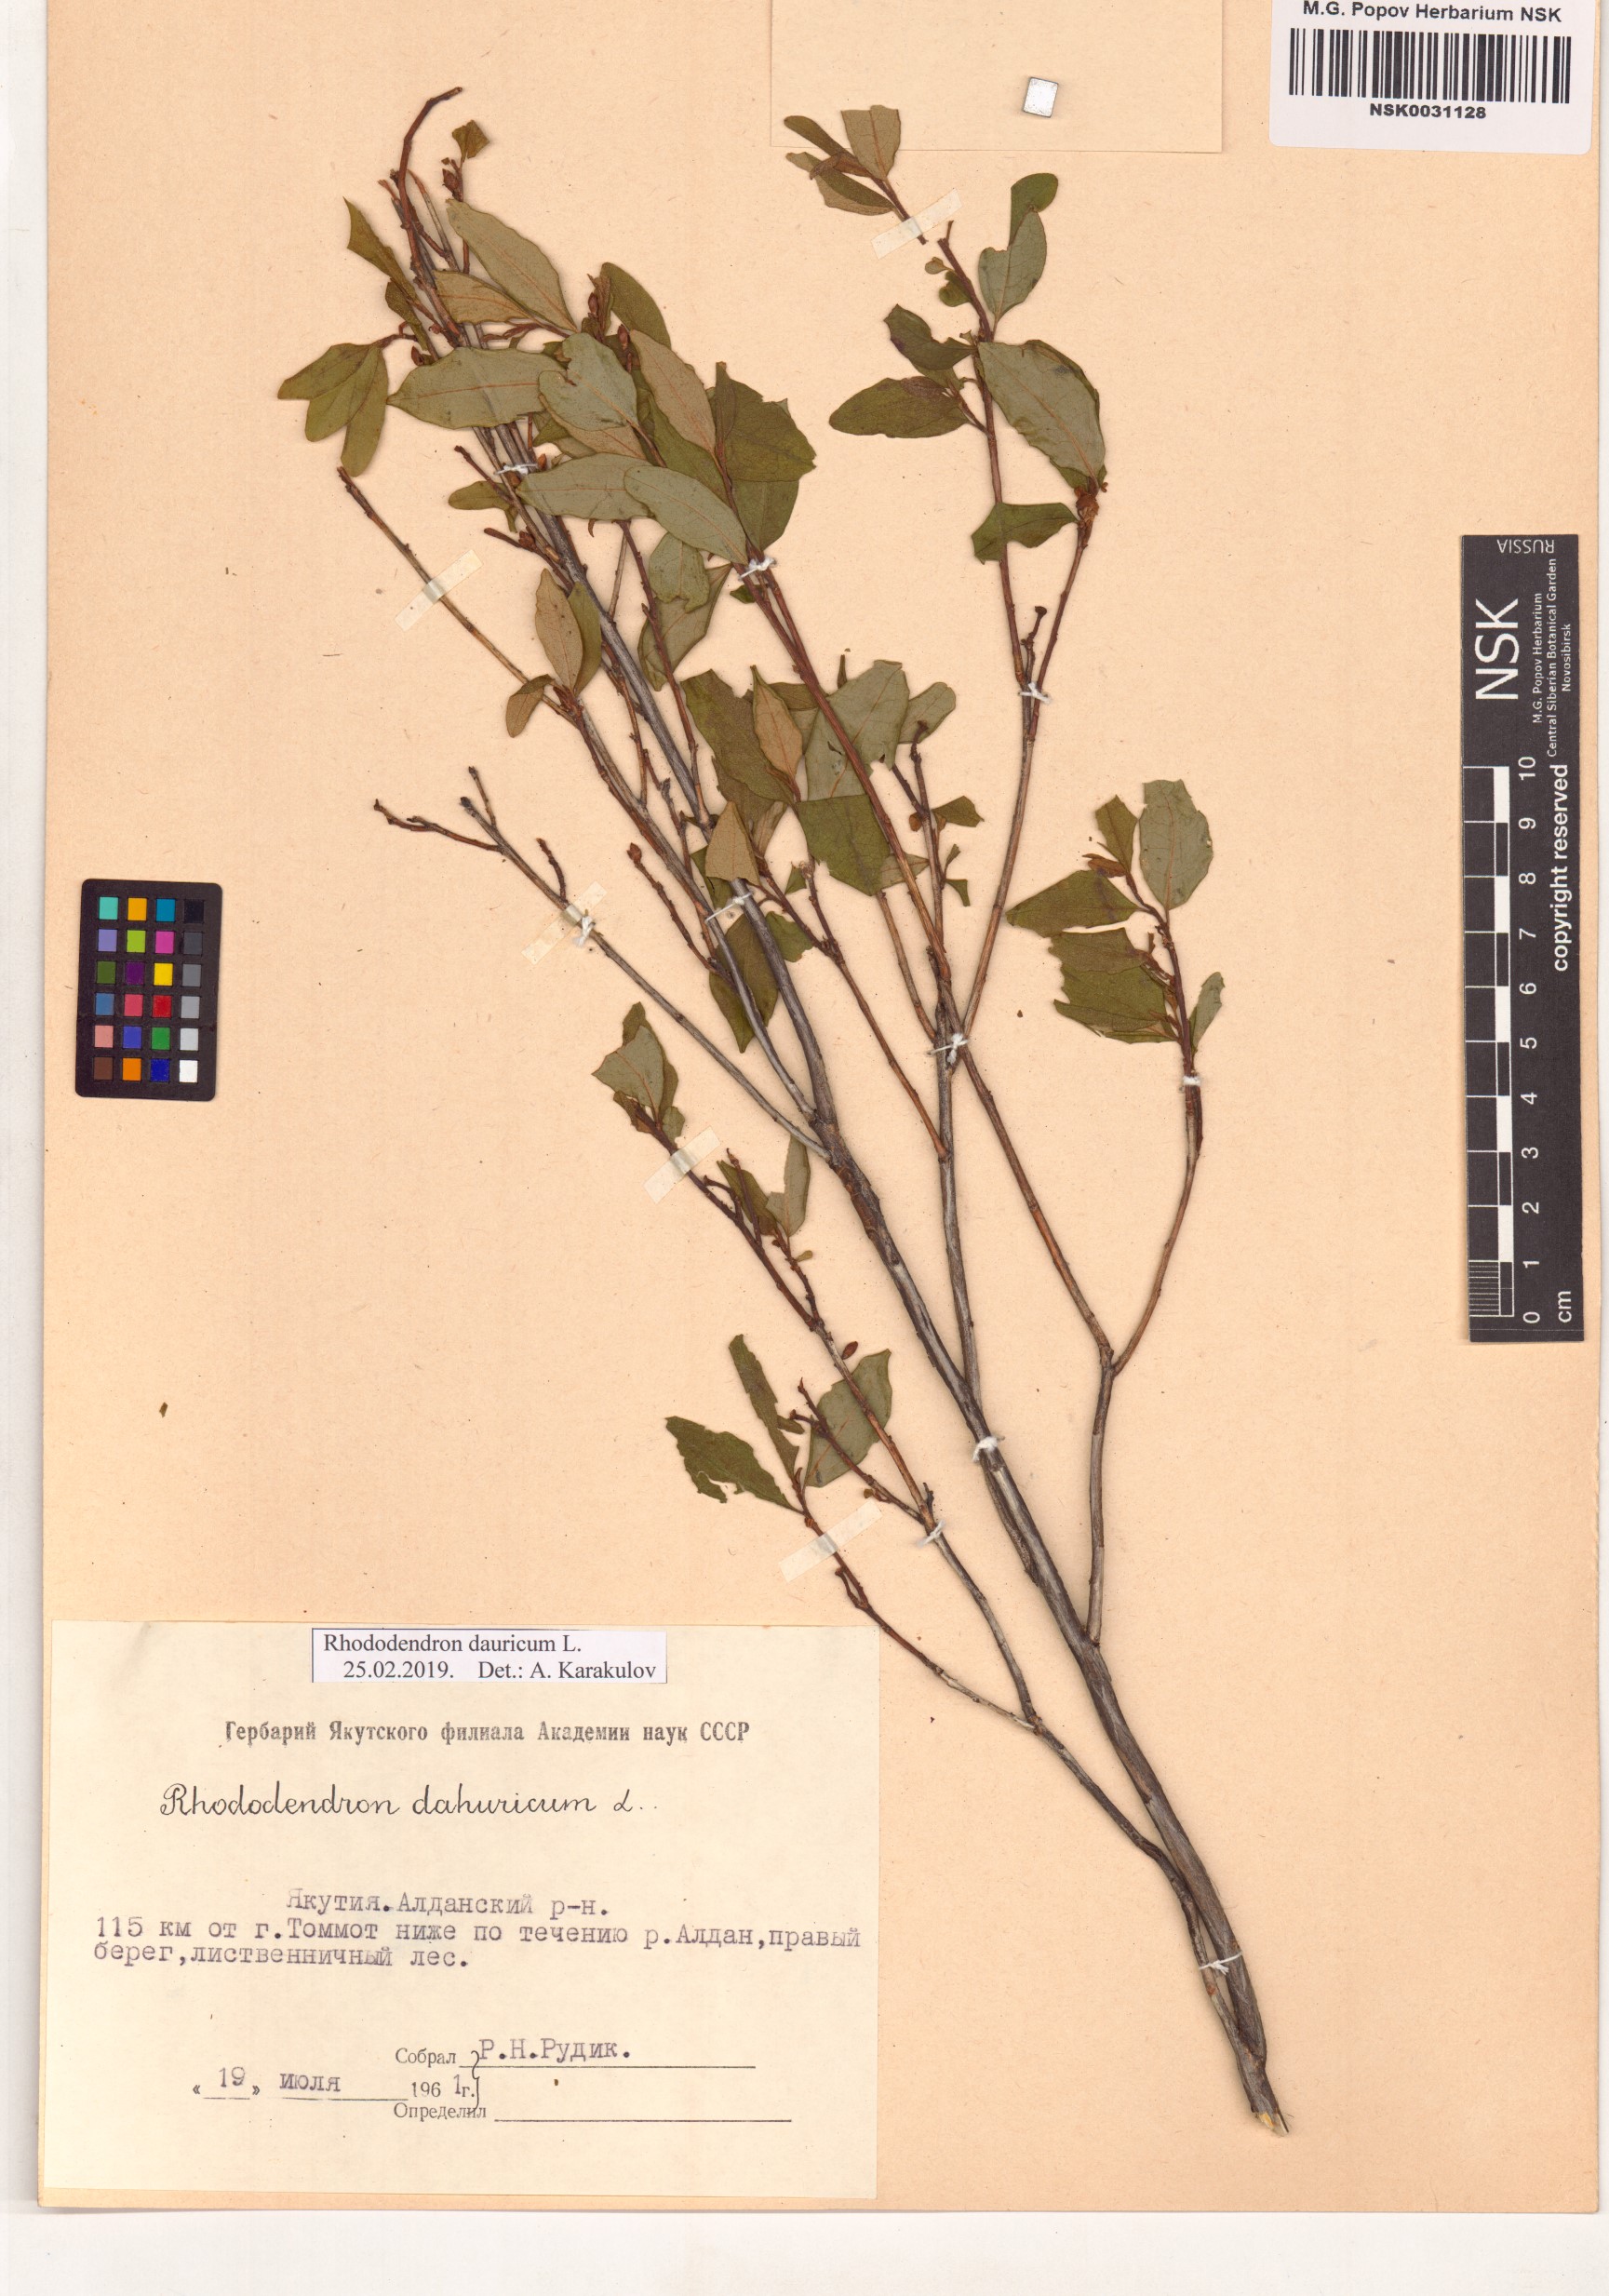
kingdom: Plantae
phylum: Tracheophyta
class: Magnoliopsida
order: Ericales
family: Ericaceae
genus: Rhododendron
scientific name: Rhododendron dauricum
